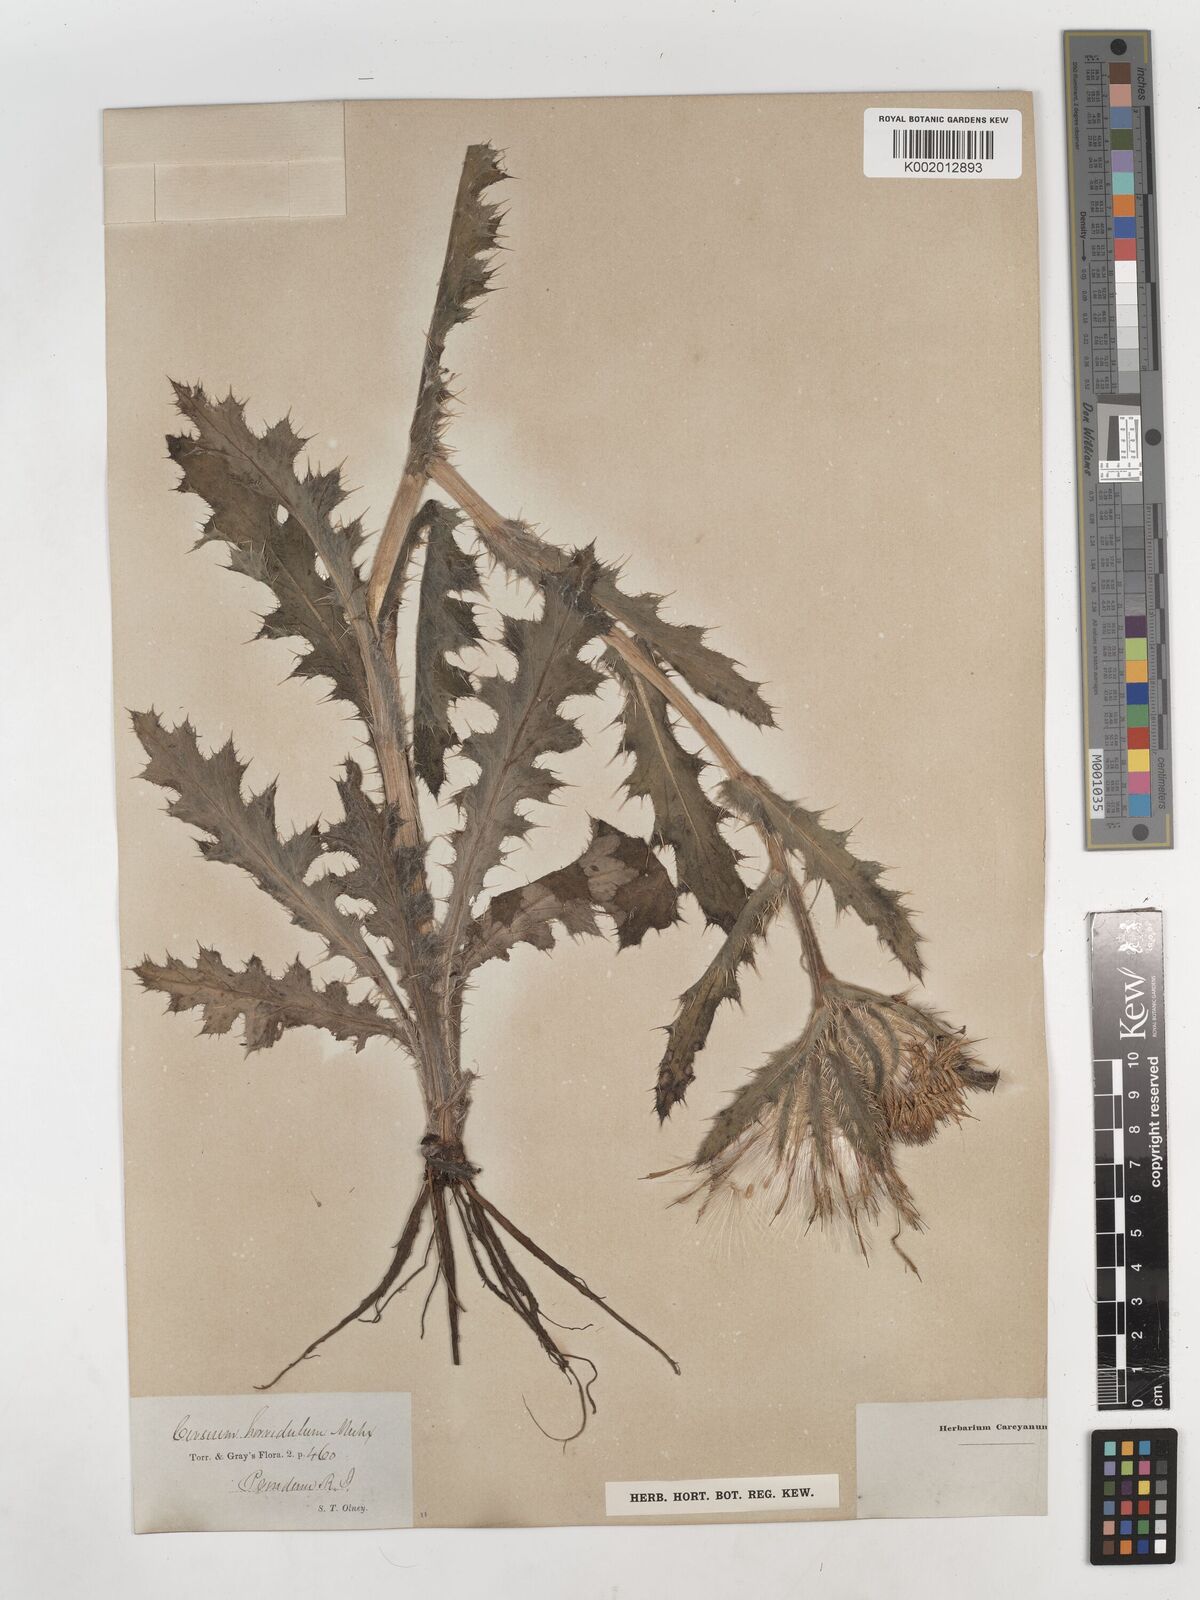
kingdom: Plantae
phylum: Tracheophyta
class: Magnoliopsida
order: Asterales
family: Asteraceae
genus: Cirsium
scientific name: Cirsium horridulum
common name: Bristly thistle
